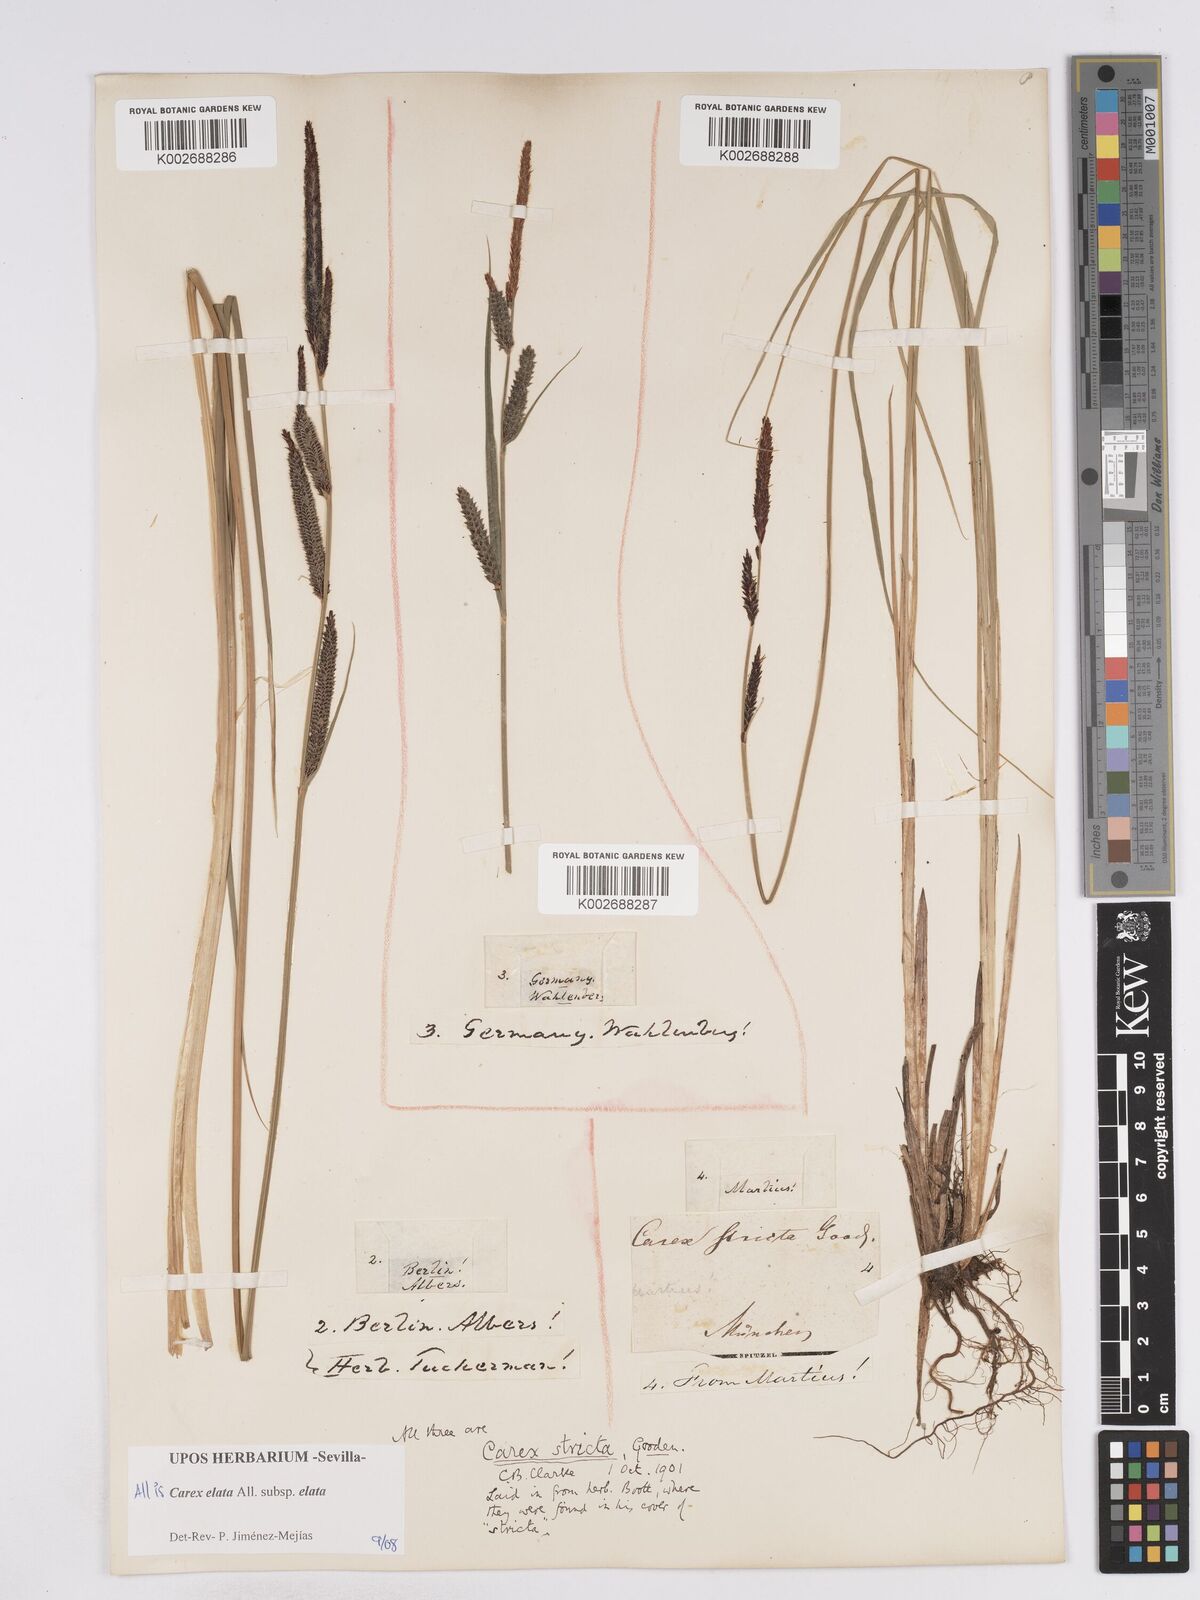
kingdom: Plantae
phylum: Tracheophyta
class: Liliopsida
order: Poales
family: Cyperaceae
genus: Carex
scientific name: Carex elata
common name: Tufted sedge
